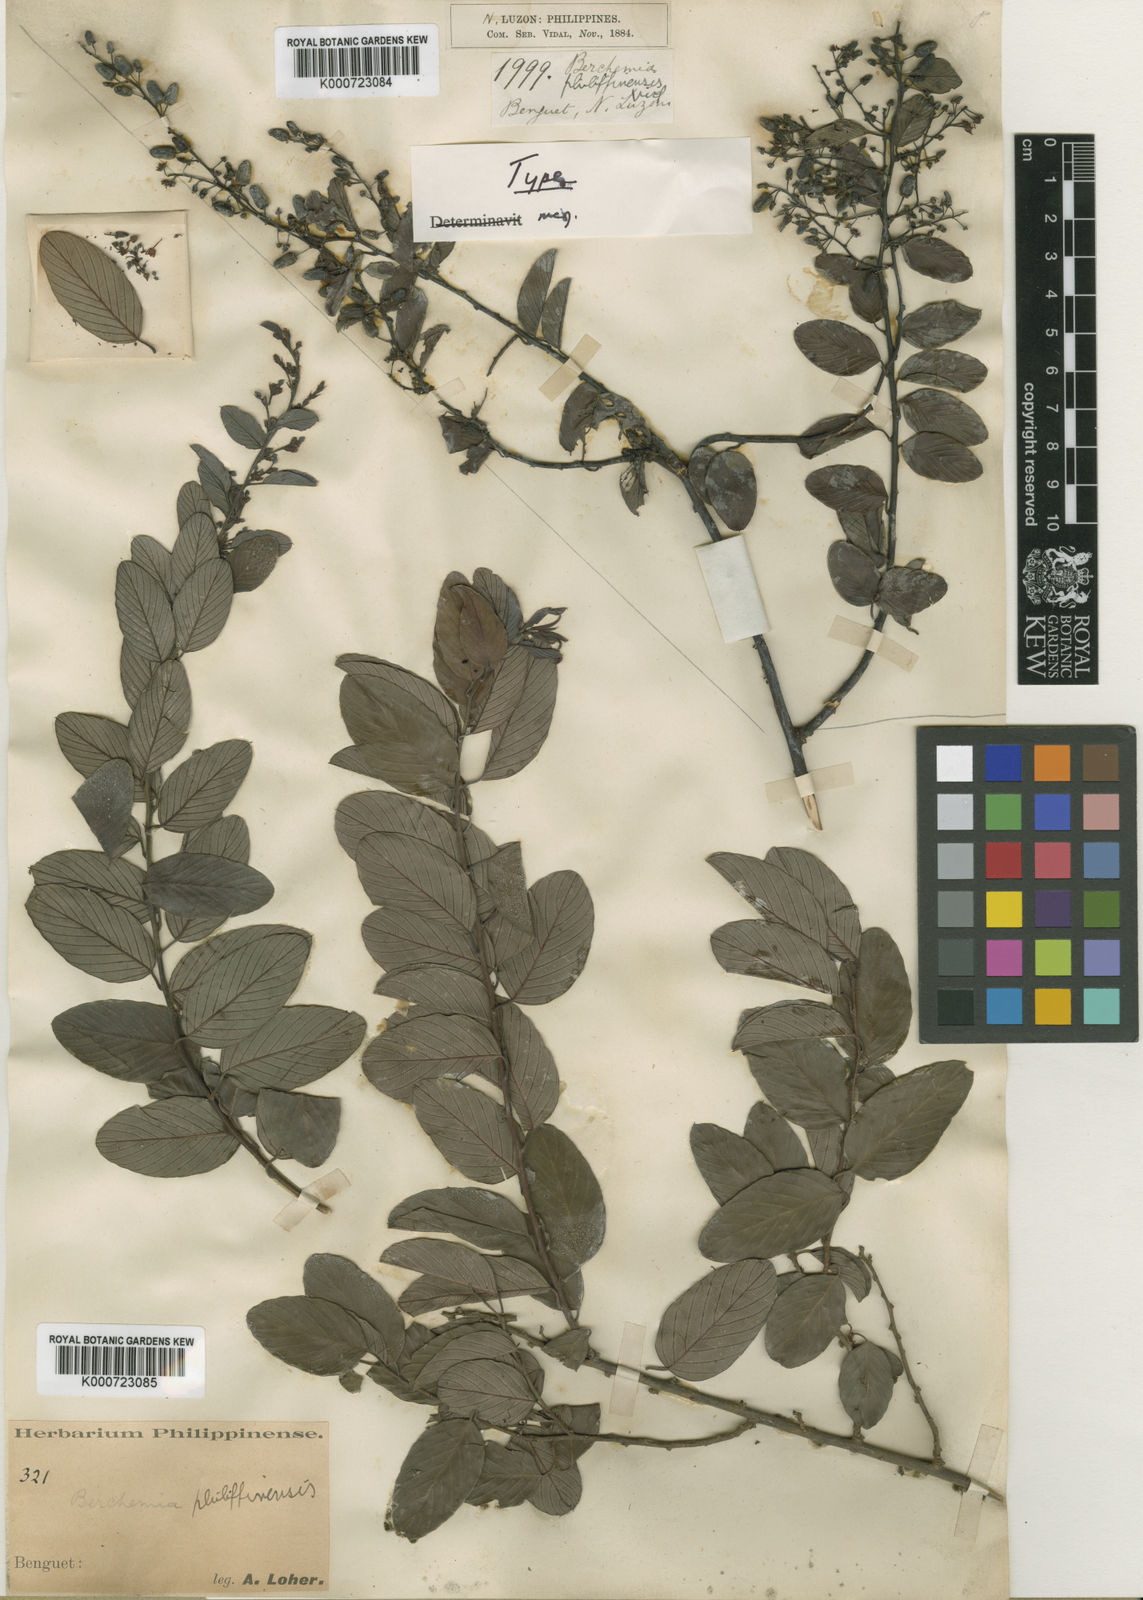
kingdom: Plantae
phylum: Tracheophyta
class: Magnoliopsida
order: Rosales
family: Rhamnaceae
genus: Berchemia
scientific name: Berchemia philippinensis
